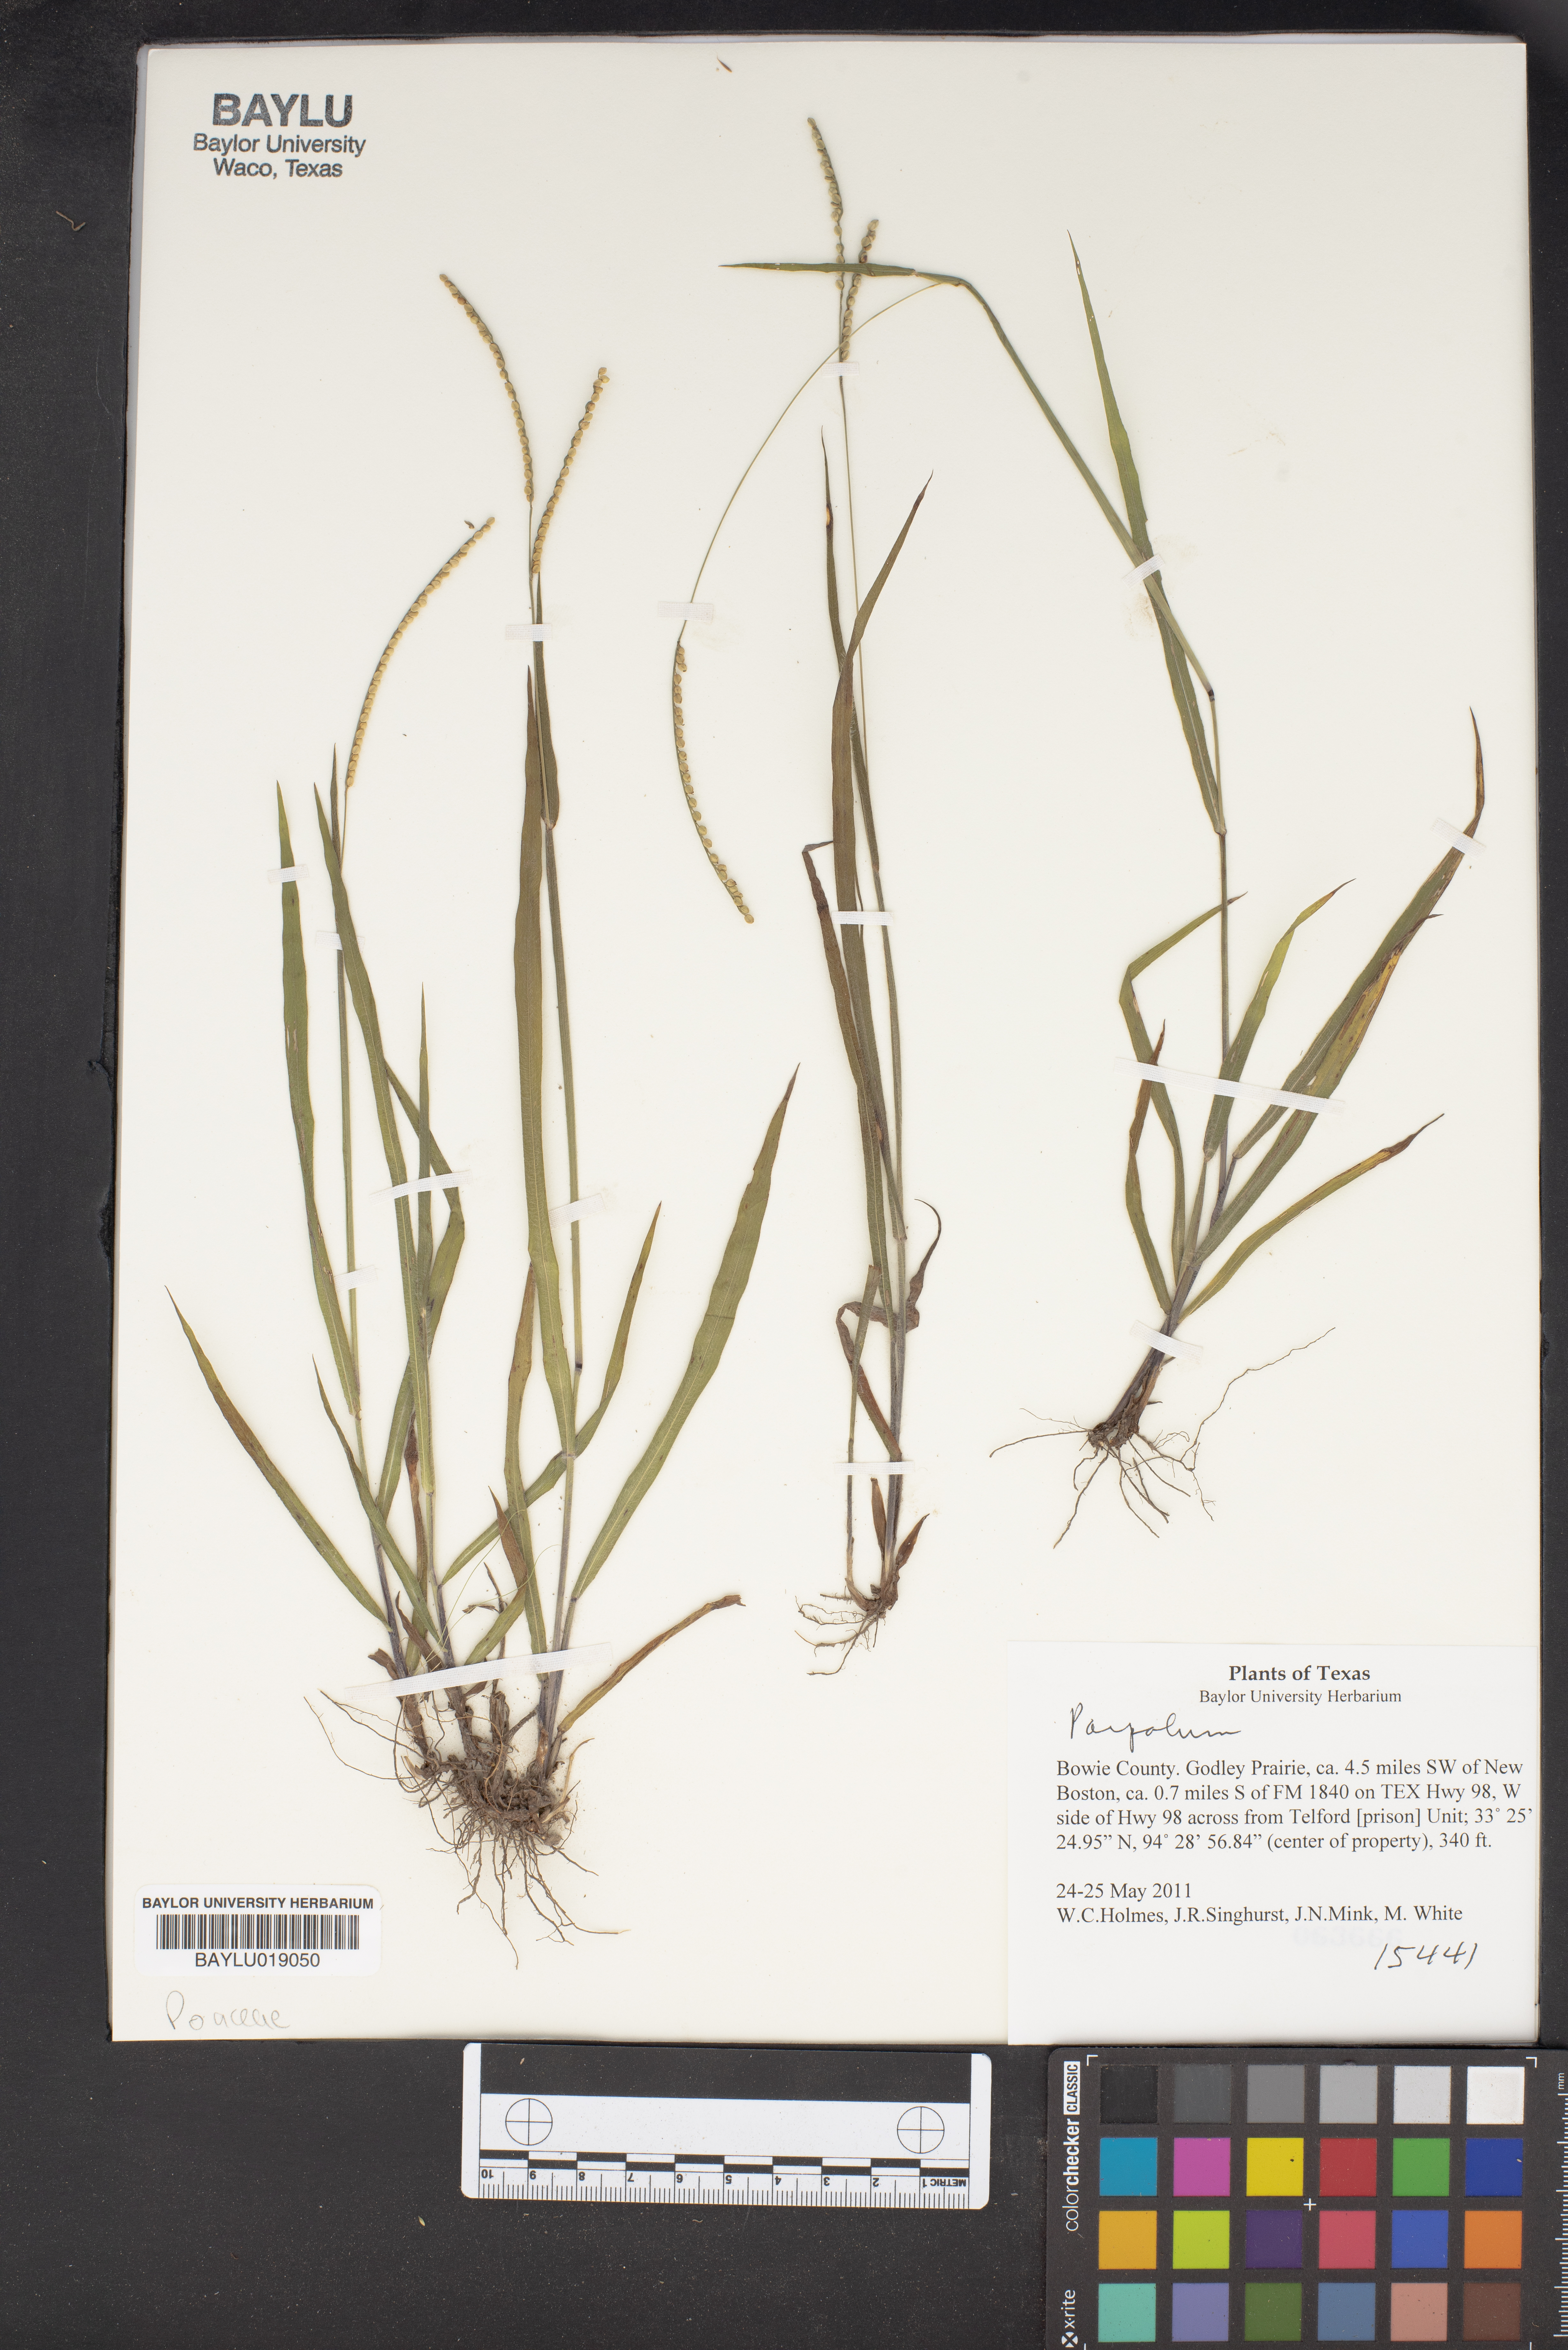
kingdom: Plantae
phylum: Tracheophyta
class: Liliopsida
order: Poales
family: Poaceae
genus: Paspalum
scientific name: Paspalum
